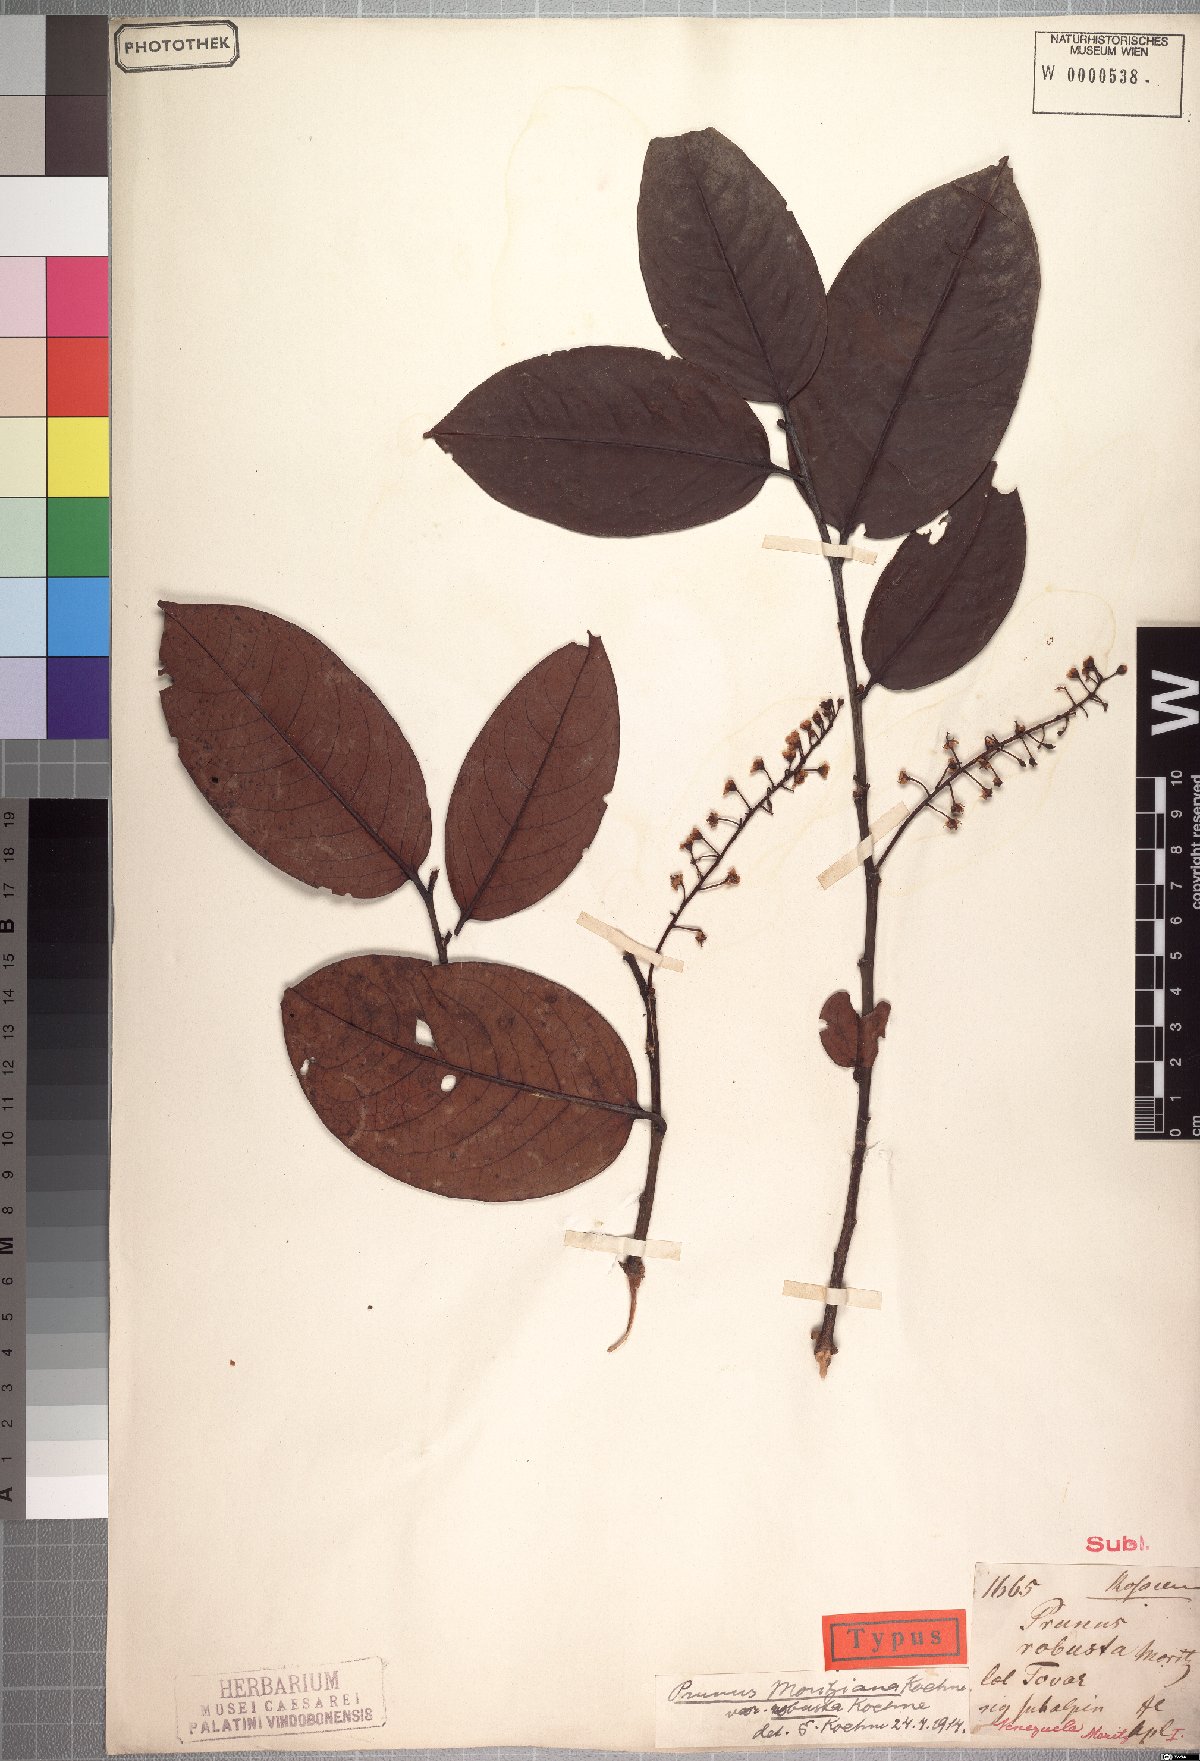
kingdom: Plantae
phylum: Tracheophyta
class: Magnoliopsida
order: Rosales
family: Rosaceae
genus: Prunus
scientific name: Prunus moritziana
